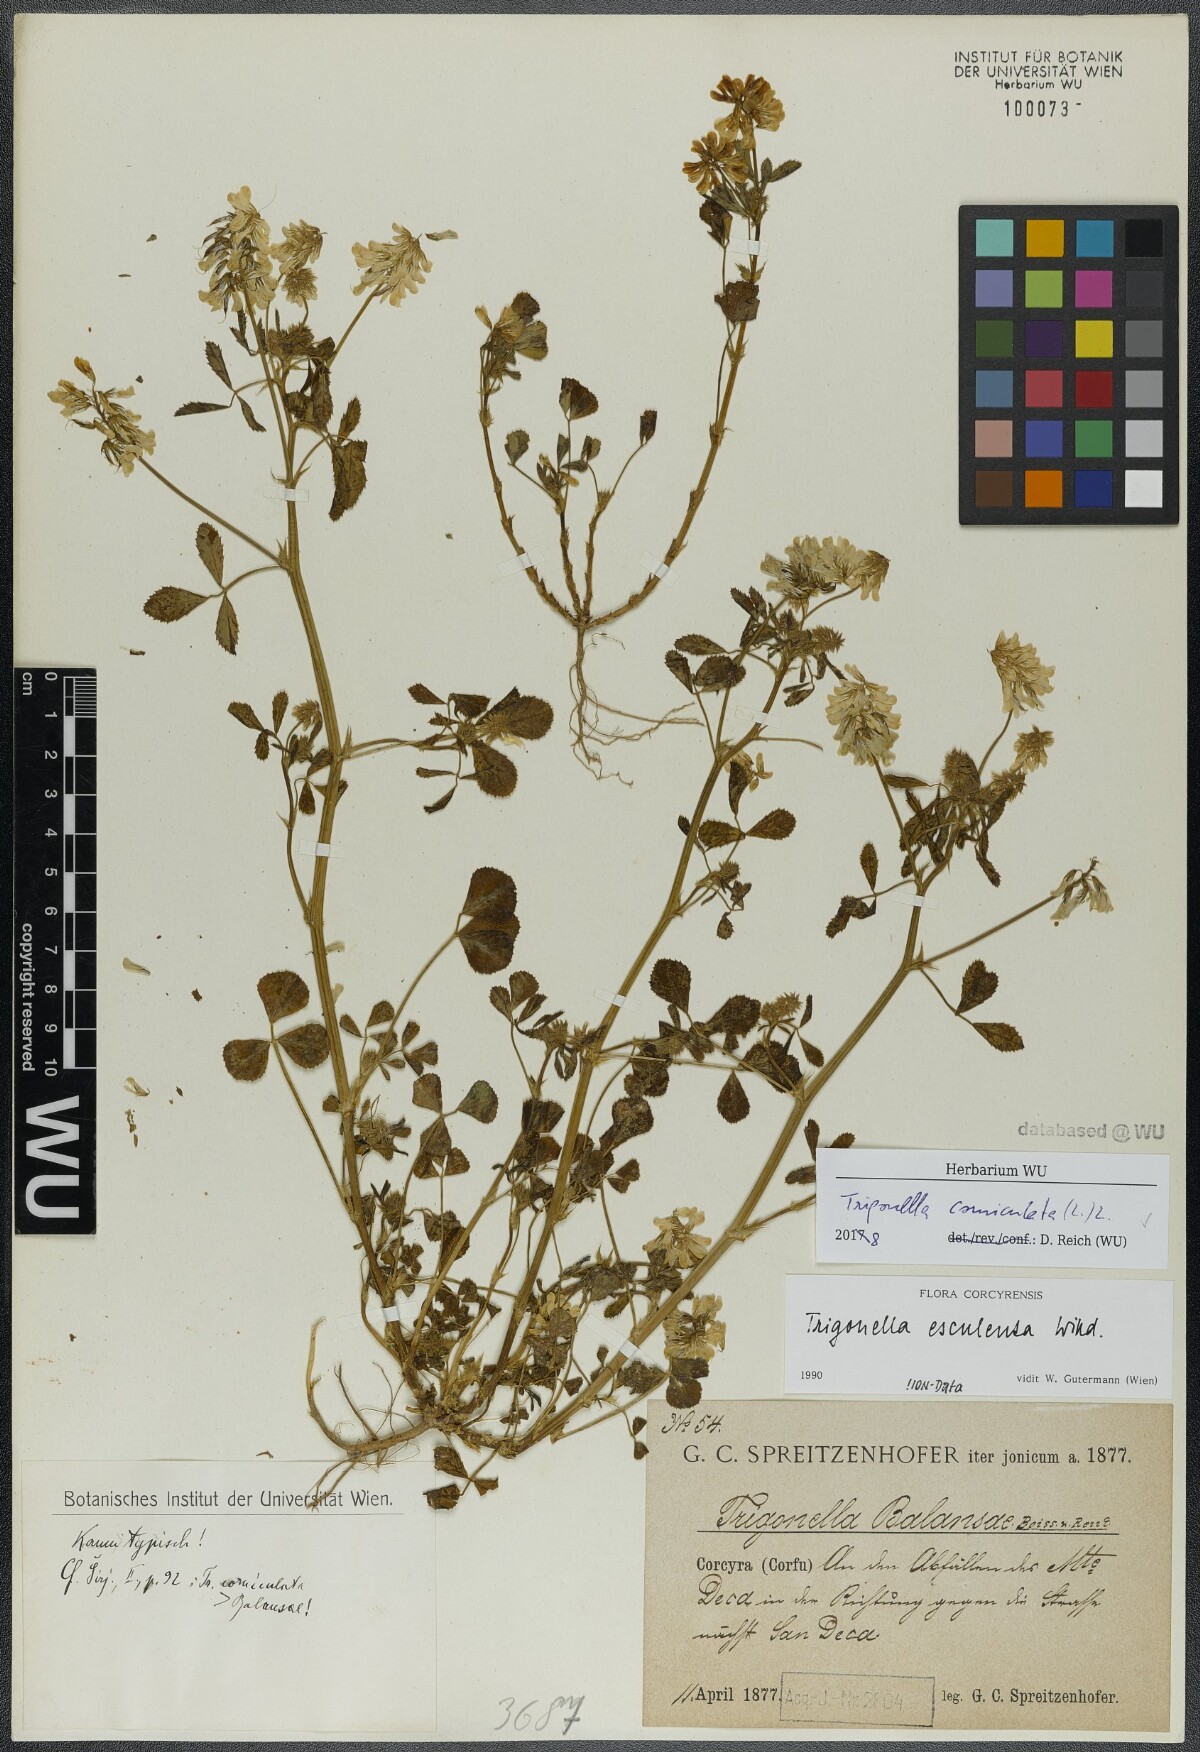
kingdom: Plantae
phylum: Tracheophyta
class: Magnoliopsida
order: Fabales
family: Fabaceae
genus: Trigonella
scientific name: Trigonella balansae
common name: Sickle-fruited fenugreek
